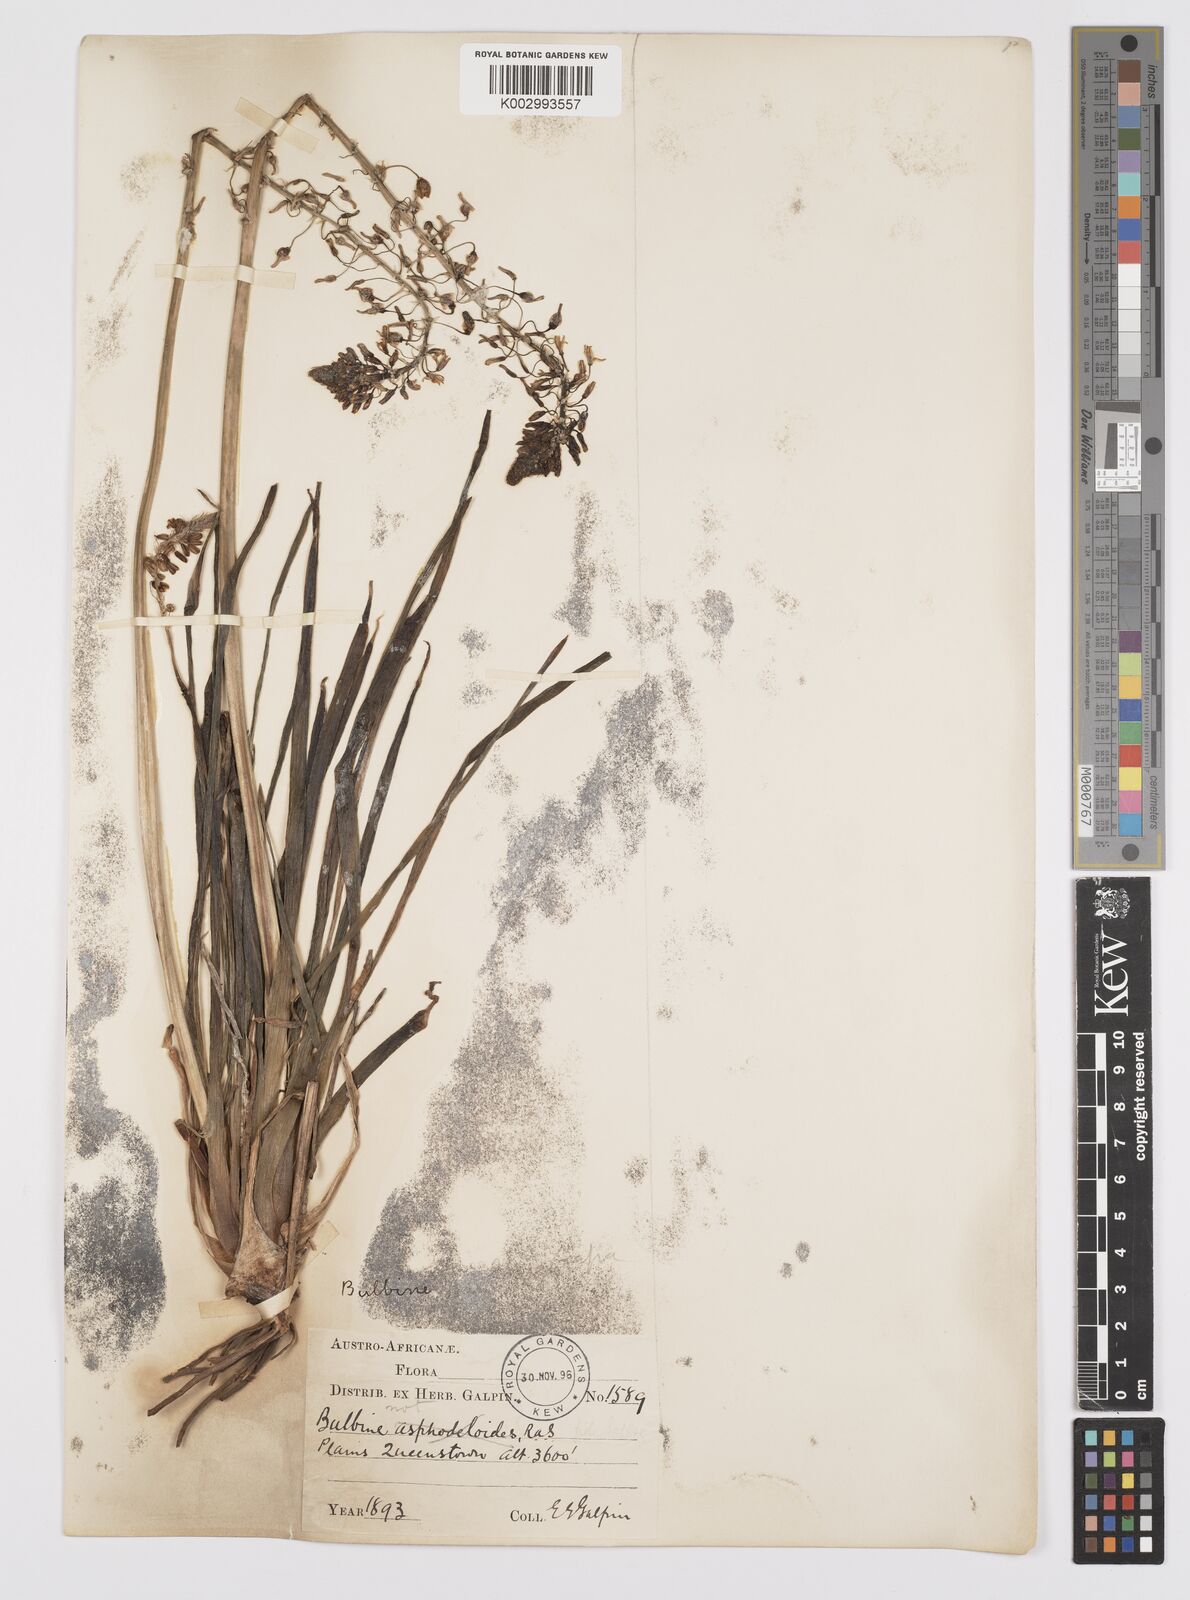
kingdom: Plantae
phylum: Tracheophyta
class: Liliopsida
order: Asparagales
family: Asphodelaceae
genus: Bulbine
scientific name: Bulbine asphodeloides
